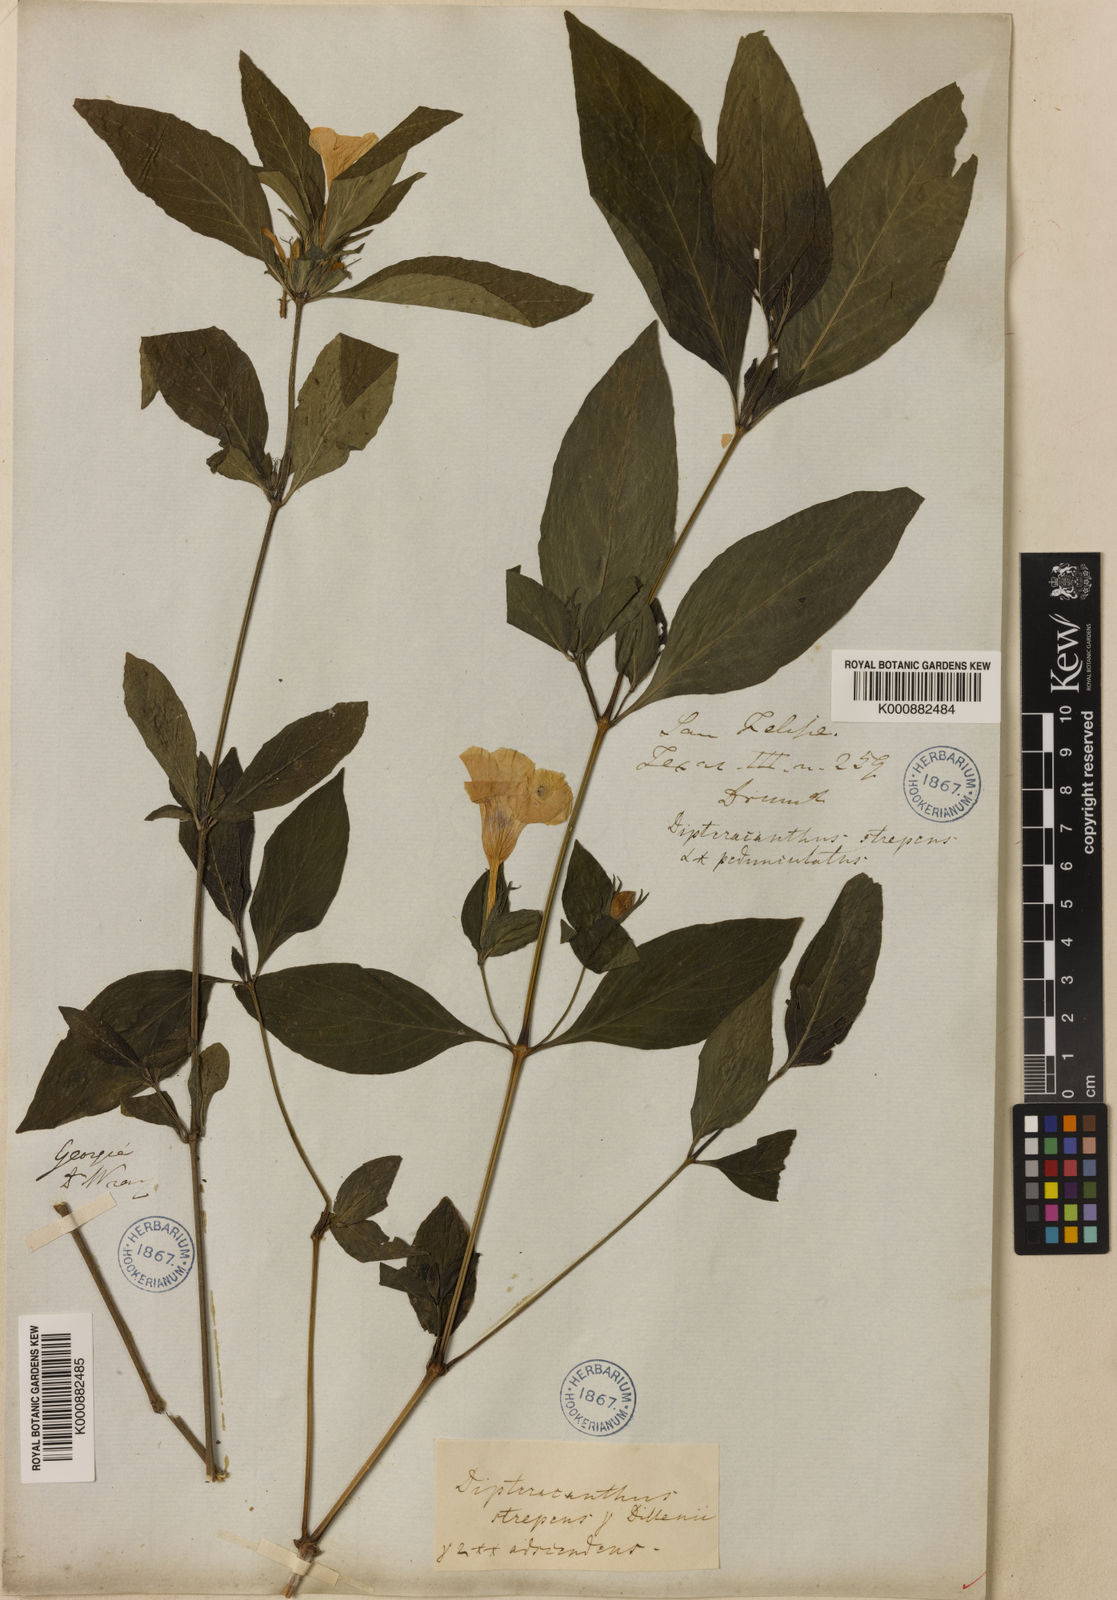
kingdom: Plantae
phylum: Tracheophyta
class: Magnoliopsida
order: Lamiales
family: Acanthaceae
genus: Ruellia
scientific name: Ruellia strepens
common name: Limestone wild petunia
